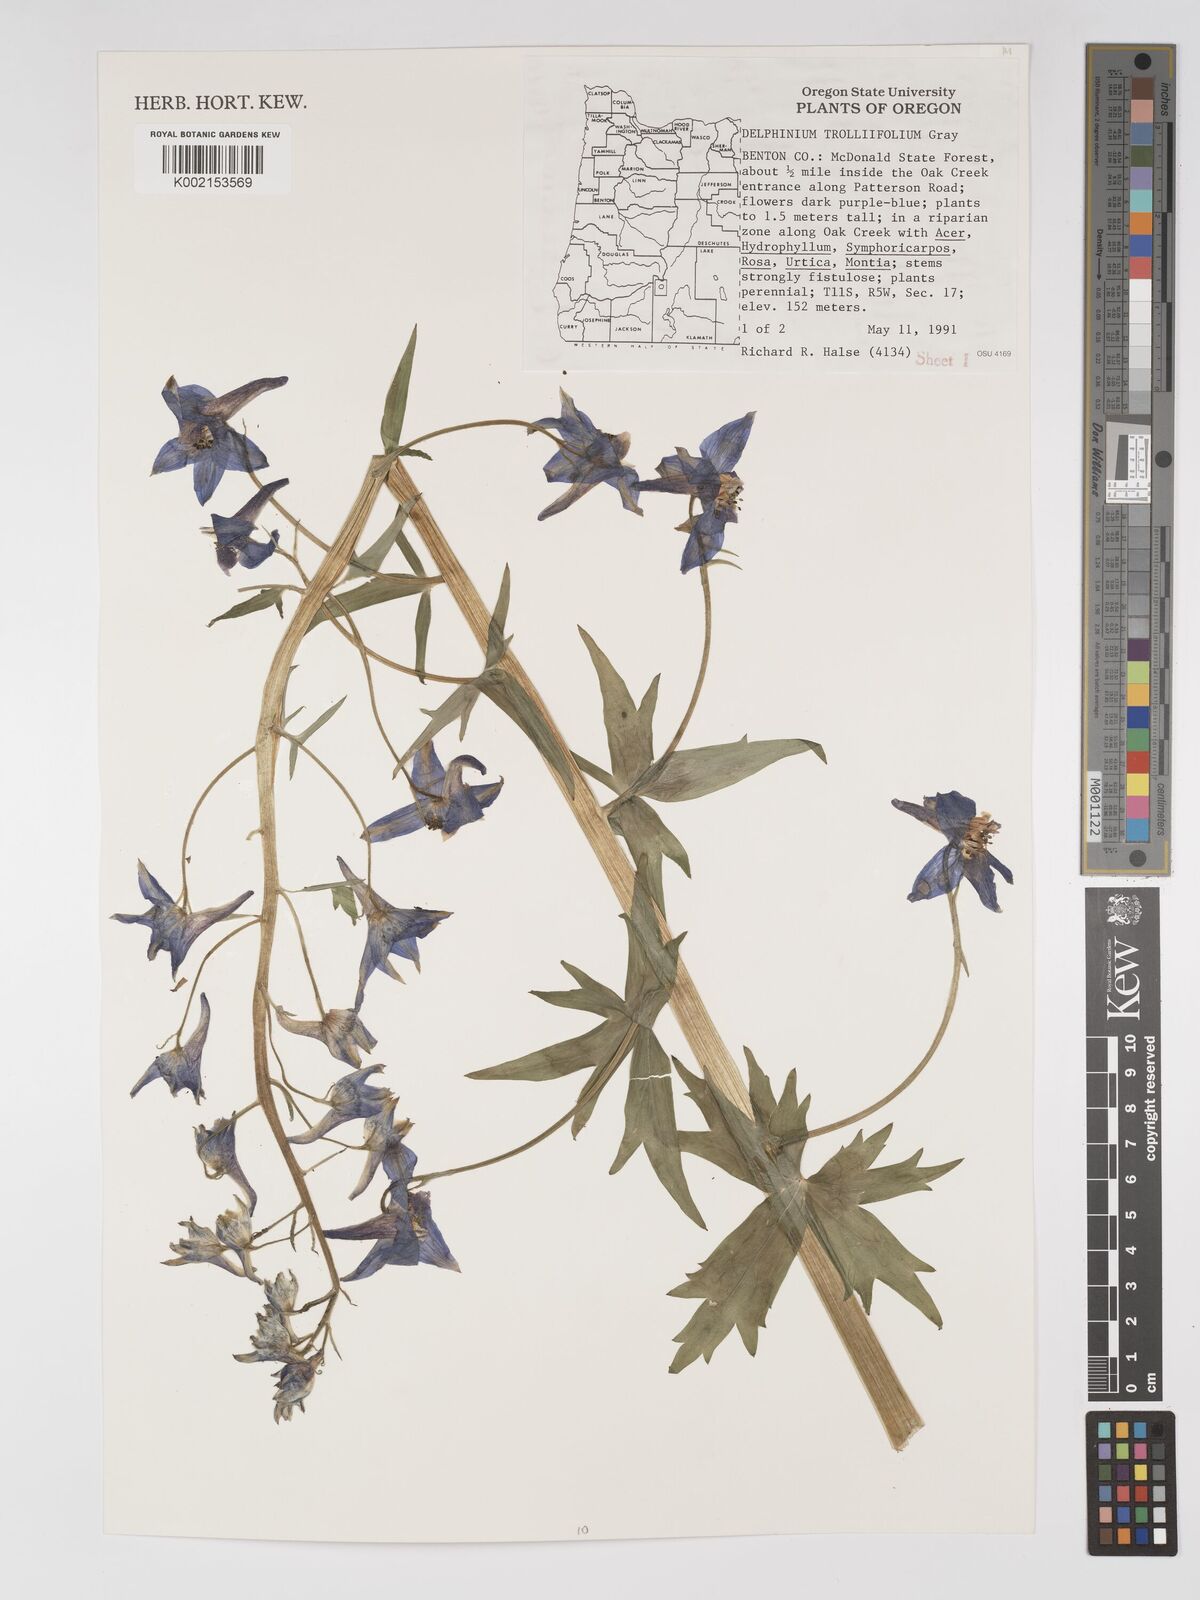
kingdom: Plantae
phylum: Tracheophyta
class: Magnoliopsida
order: Ranunculales
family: Ranunculaceae
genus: Delphinium
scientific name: Delphinium trolliifolium
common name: Cow-poison
